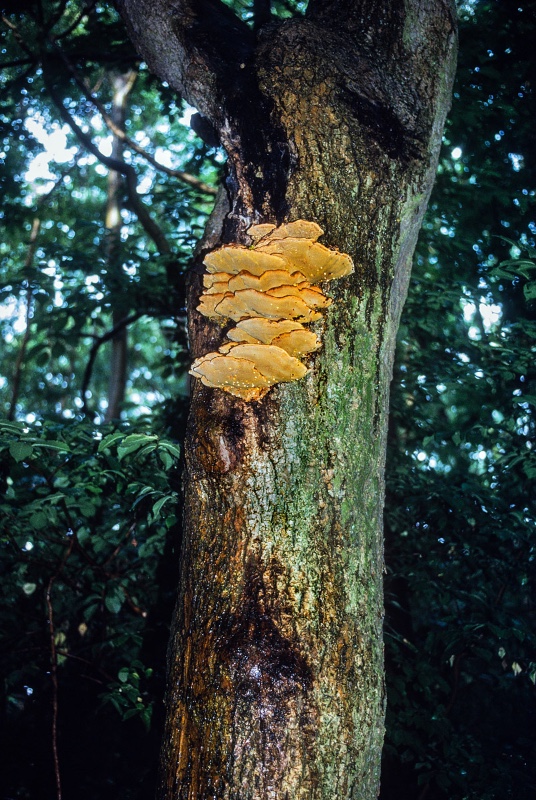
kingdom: Fungi
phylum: Basidiomycota
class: Agaricomycetes
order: Hymenochaetales
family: Hymenochaetaceae
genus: Inonotus
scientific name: Inonotus hispidus
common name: børstehåret spejlporesvamp
